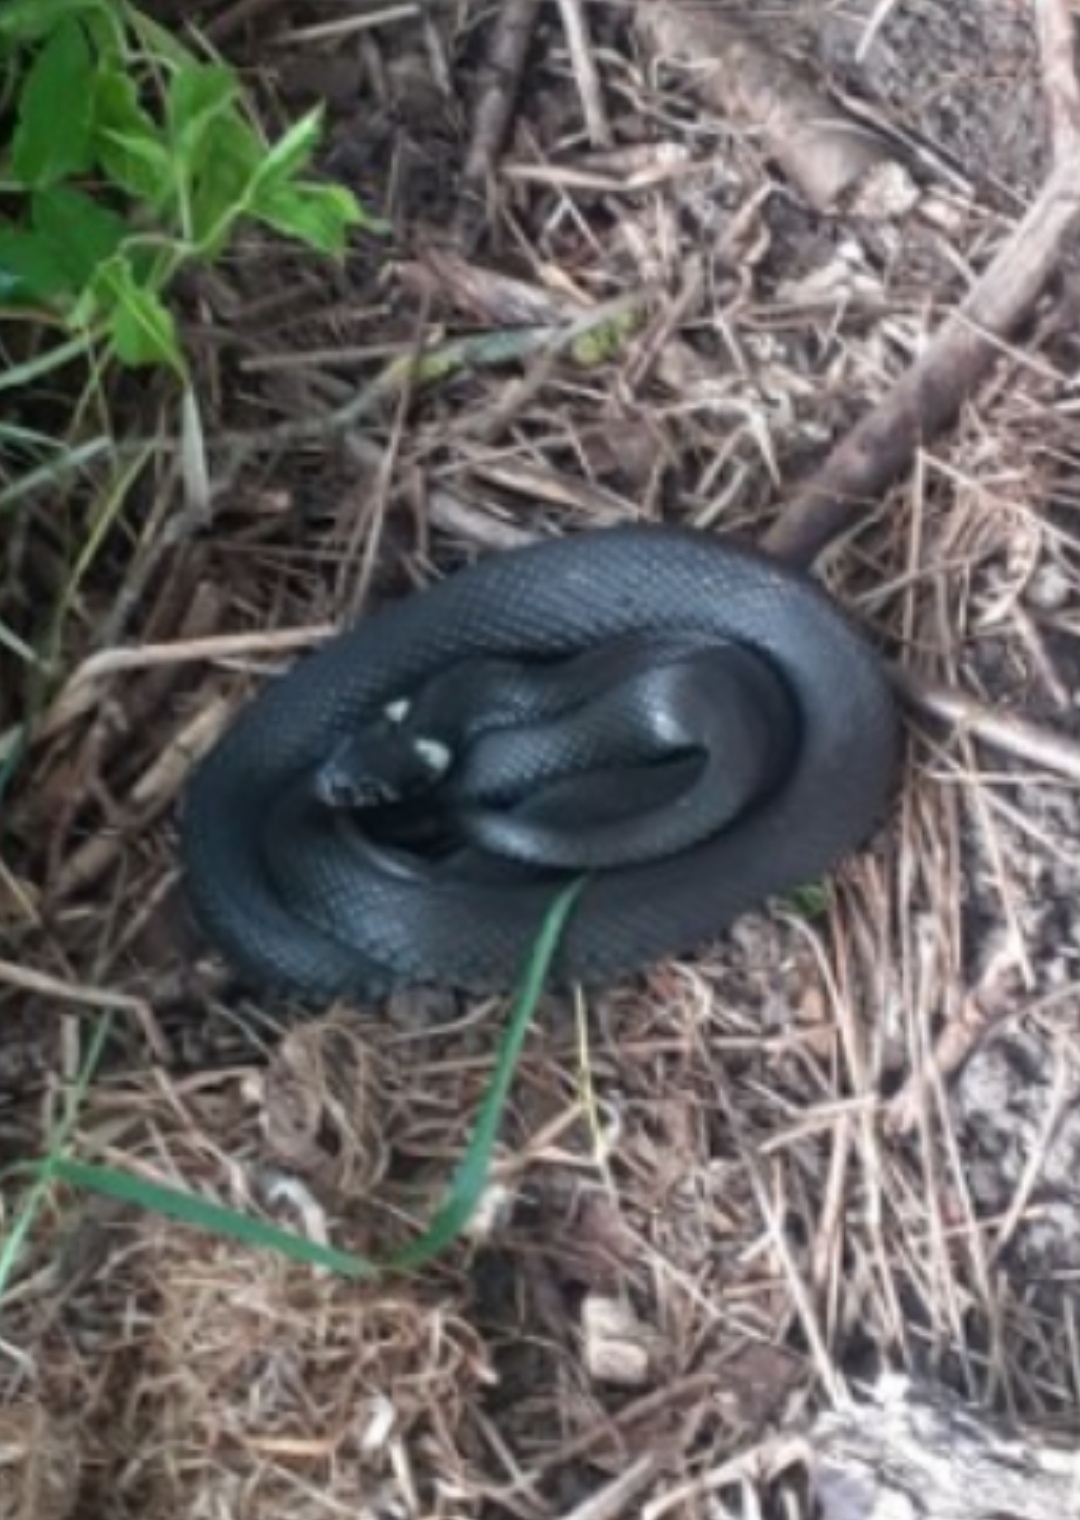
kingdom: Animalia
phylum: Chordata
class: Squamata
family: Colubridae
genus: Natrix
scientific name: Natrix natrix
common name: Snog
